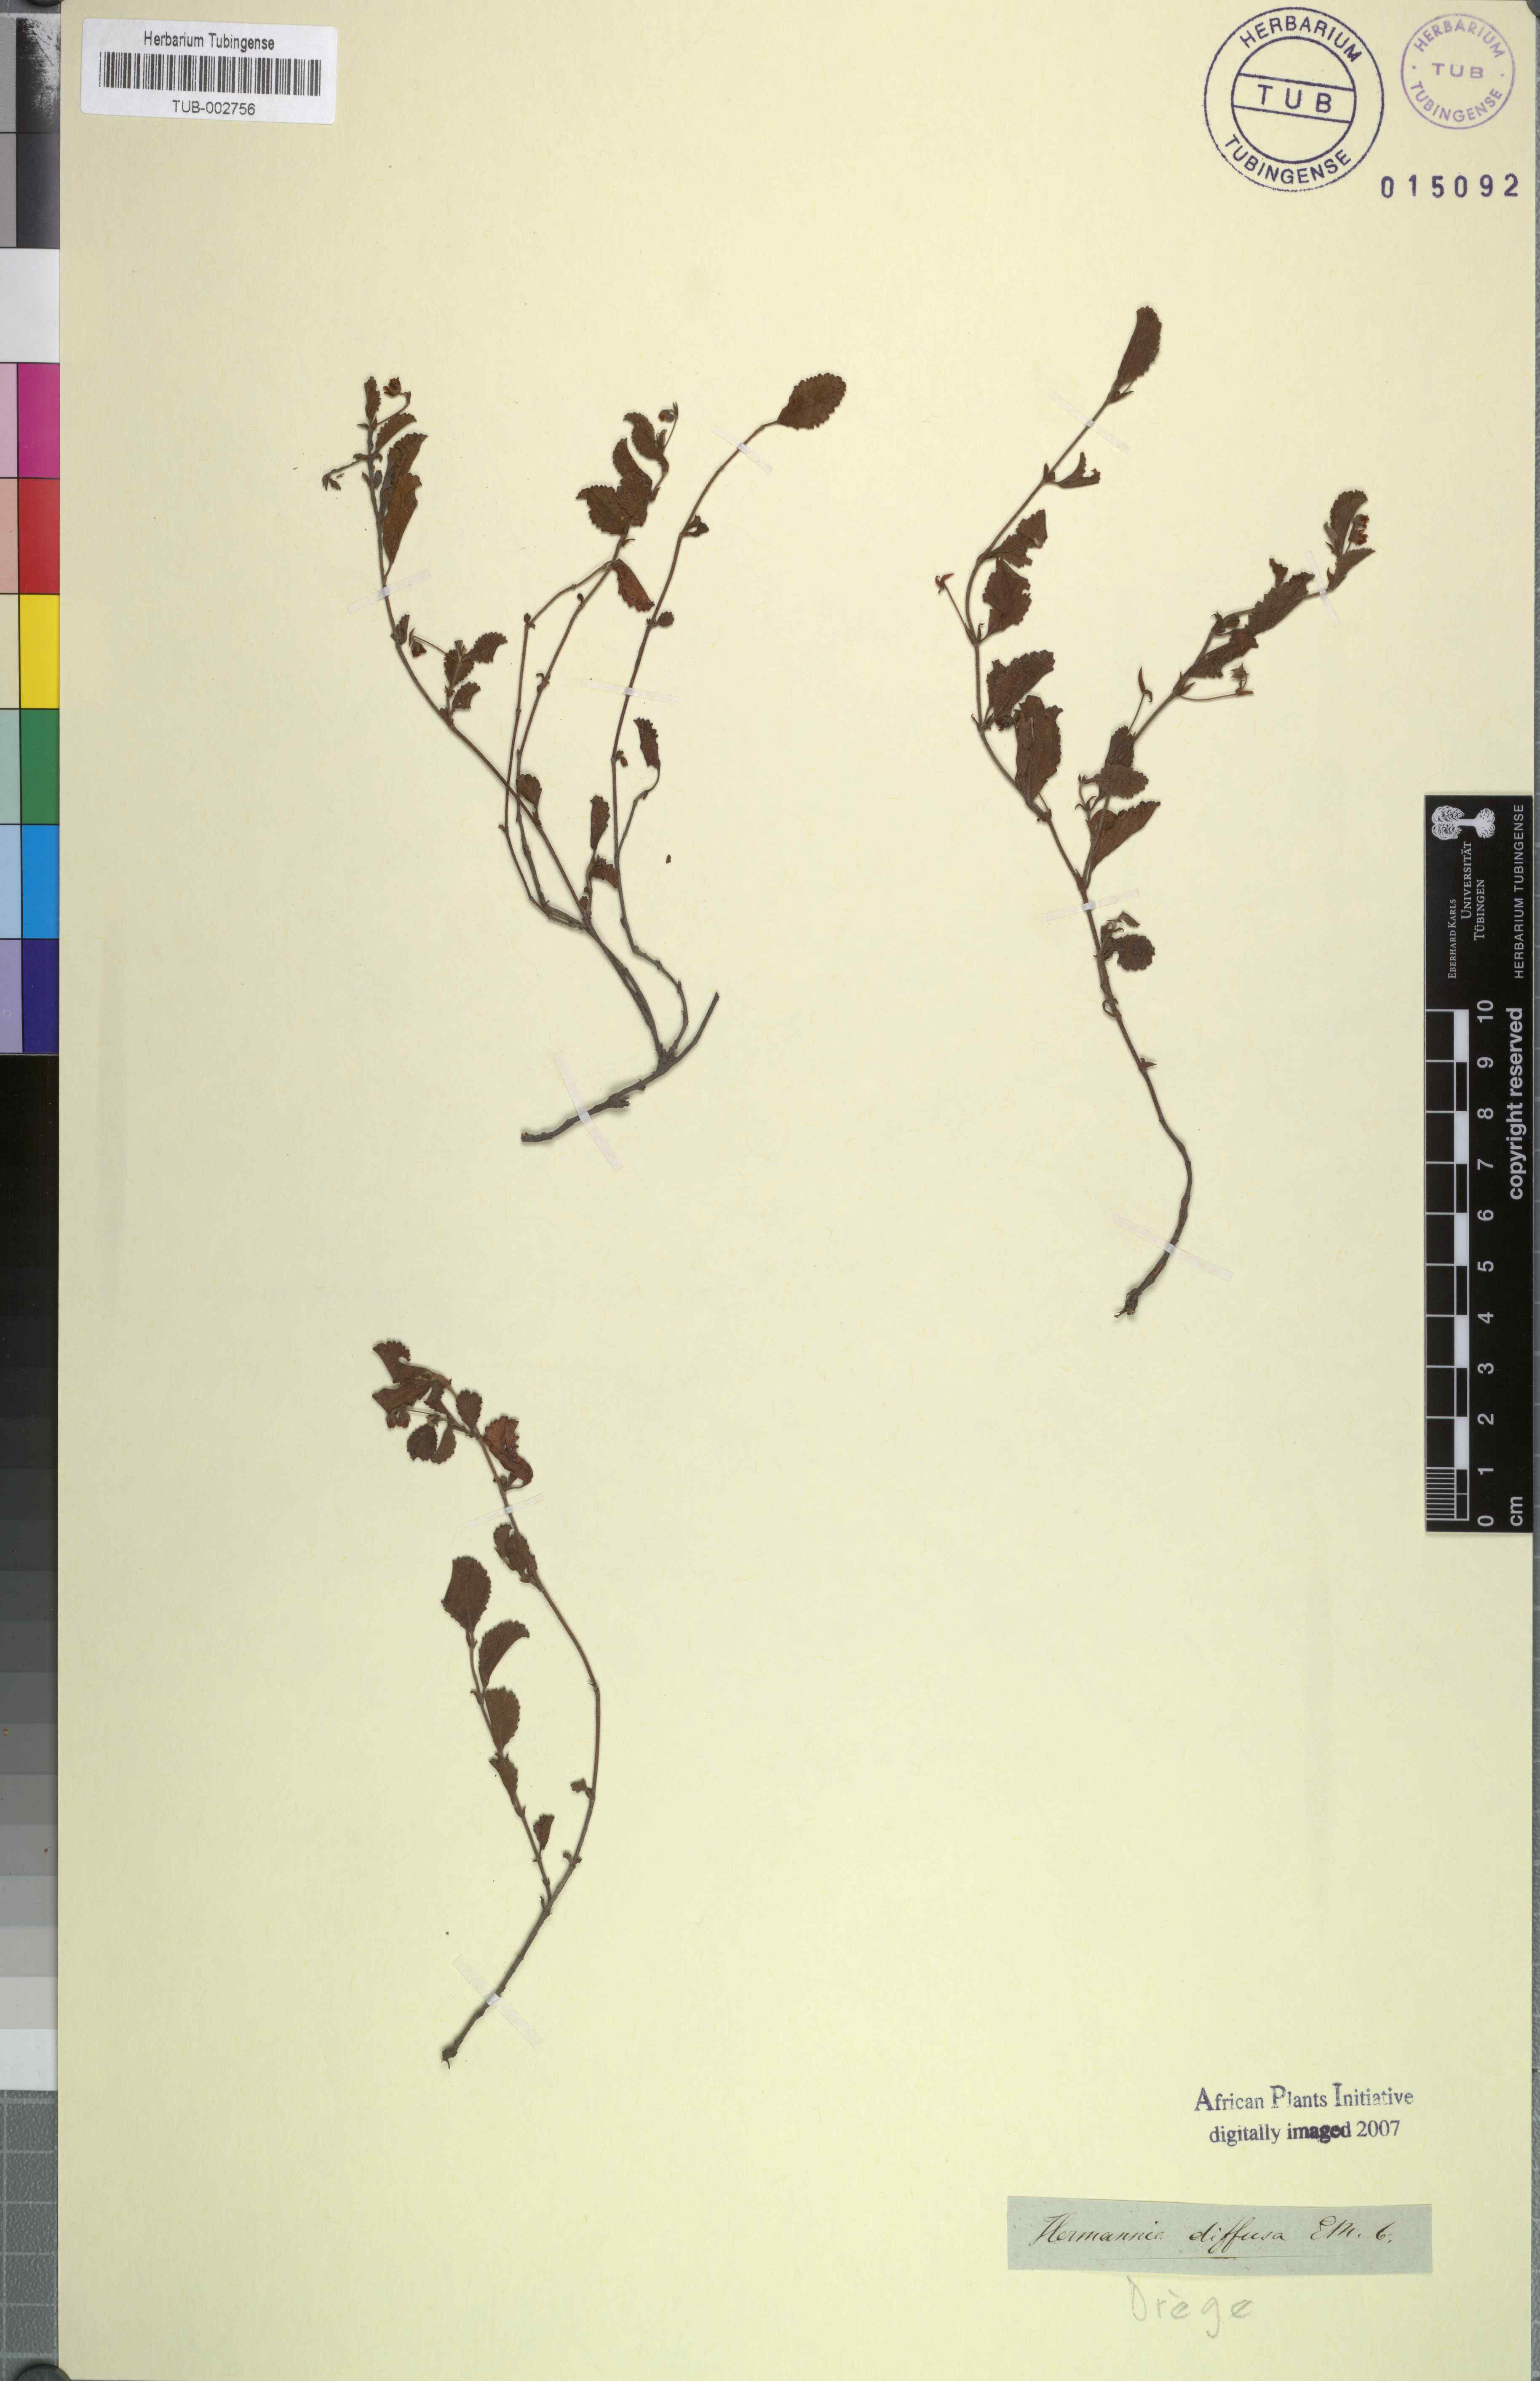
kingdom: Plantae
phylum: Tracheophyta
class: Magnoliopsida
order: Malvales
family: Malvaceae
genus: Hermannia
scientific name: Hermannia parviflora
